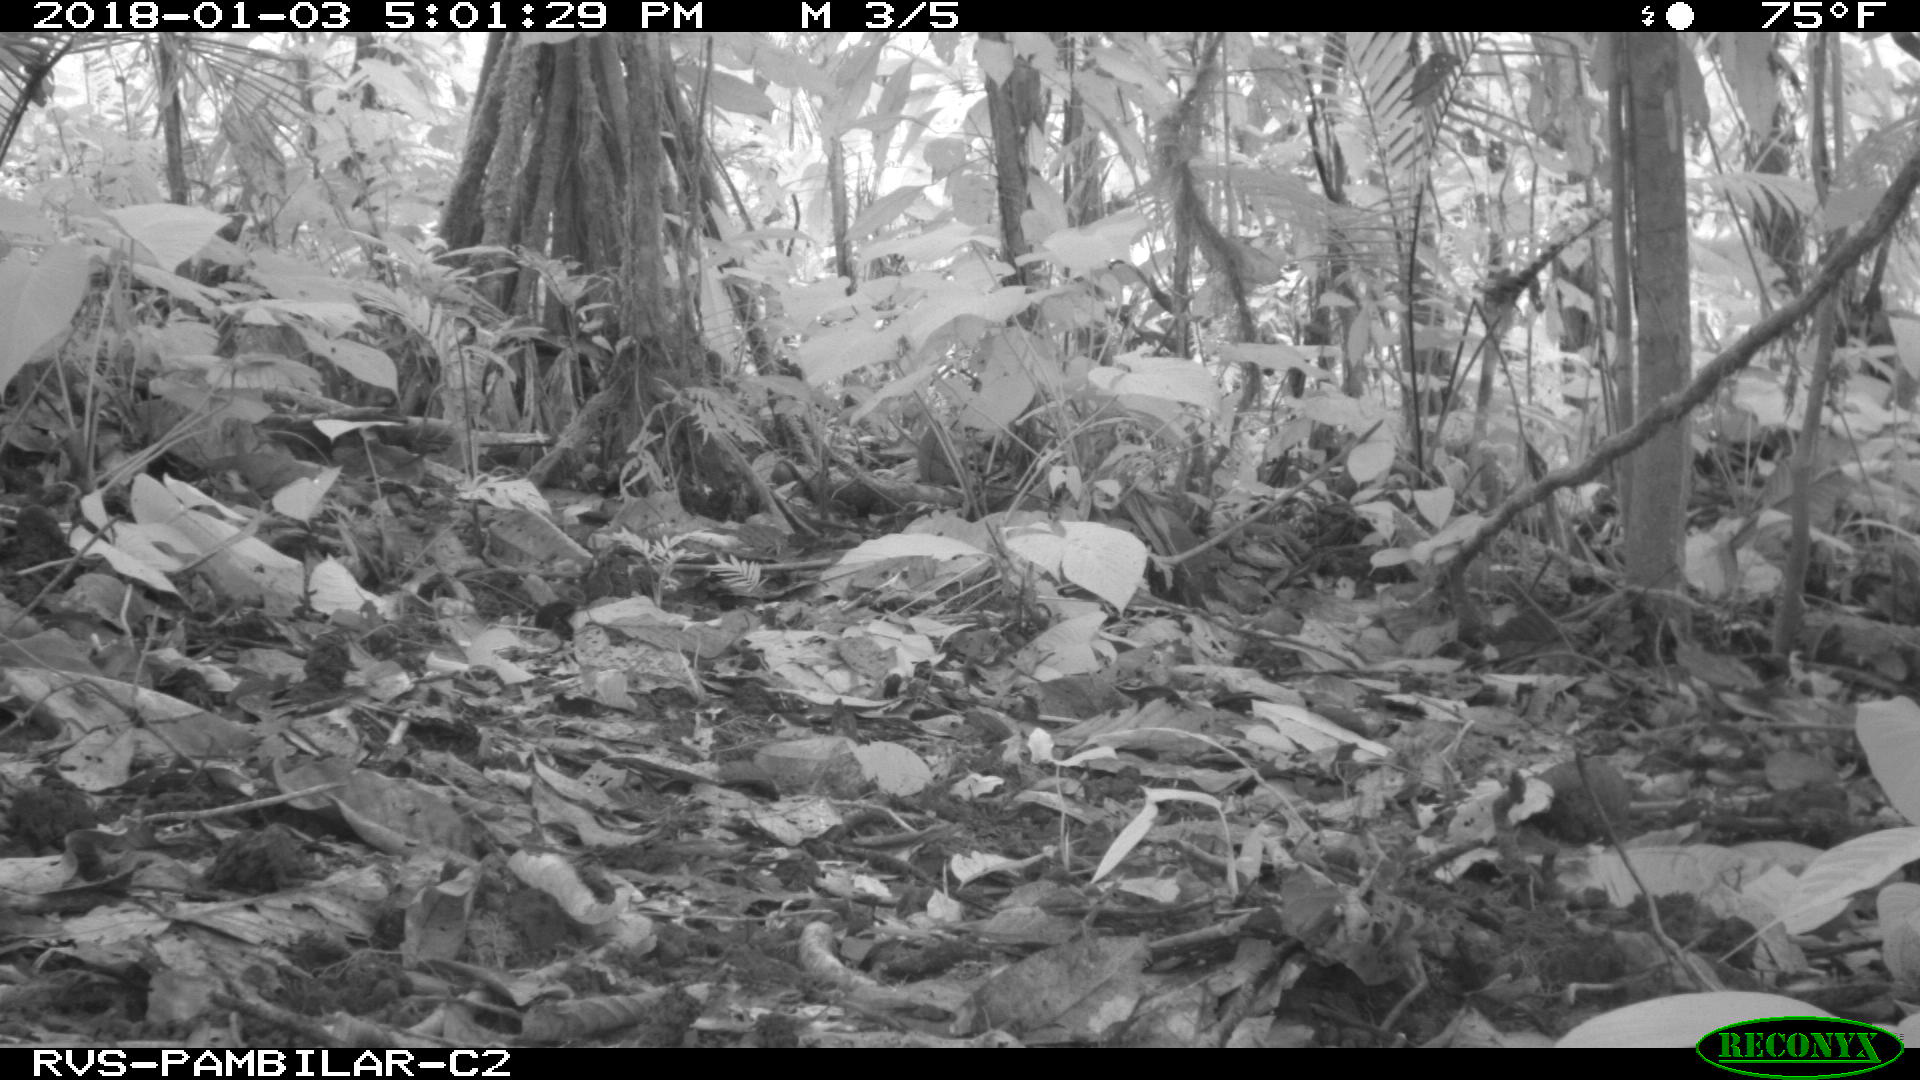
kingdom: Animalia
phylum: Chordata
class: Mammalia
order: Rodentia
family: Dasyproctidae
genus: Dasyprocta
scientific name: Dasyprocta punctata
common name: Central american agouti
